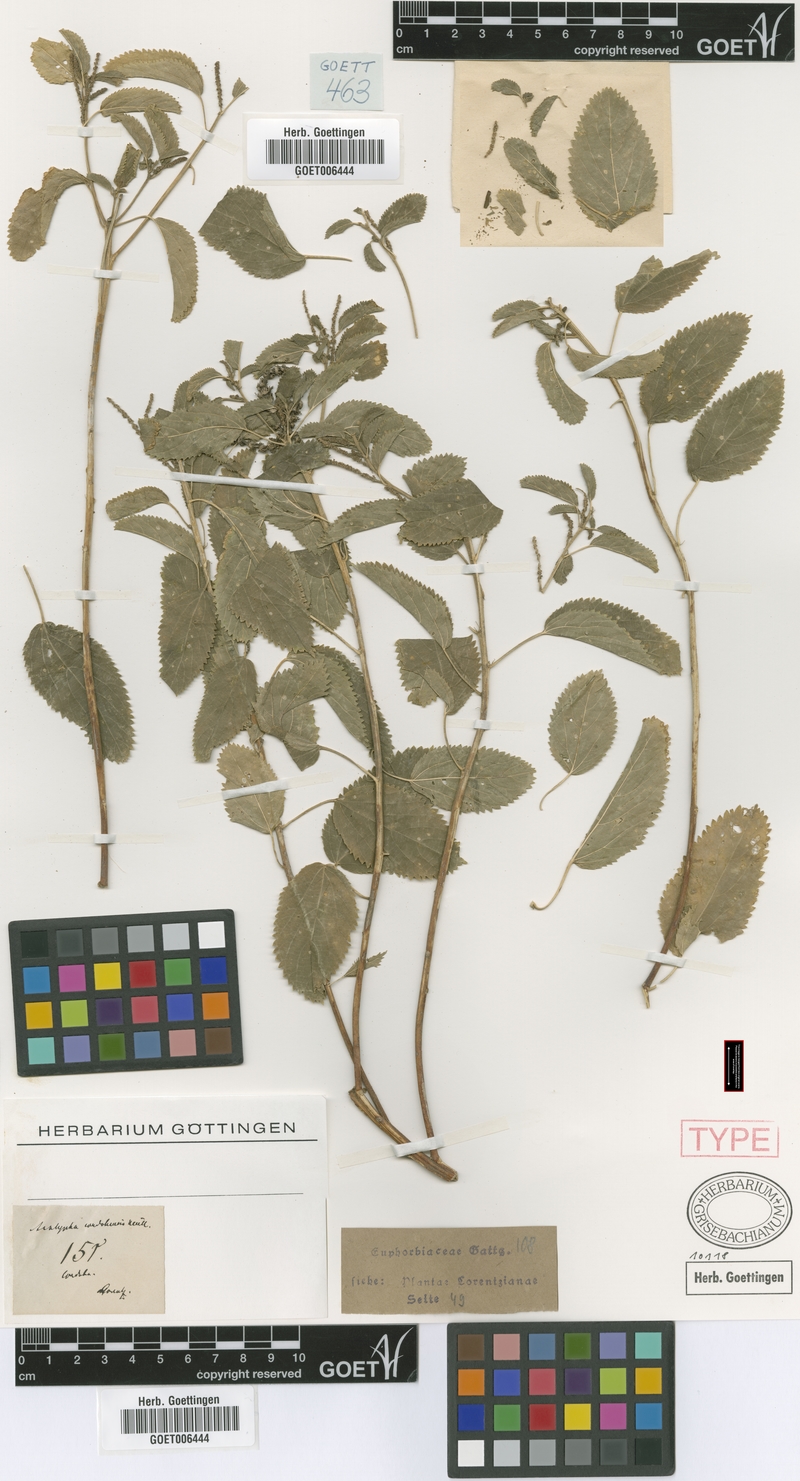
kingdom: Plantae
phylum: Tracheophyta
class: Magnoliopsida
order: Malpighiales
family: Euphorbiaceae
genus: Acalypha
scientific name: Acalypha cordobensis
